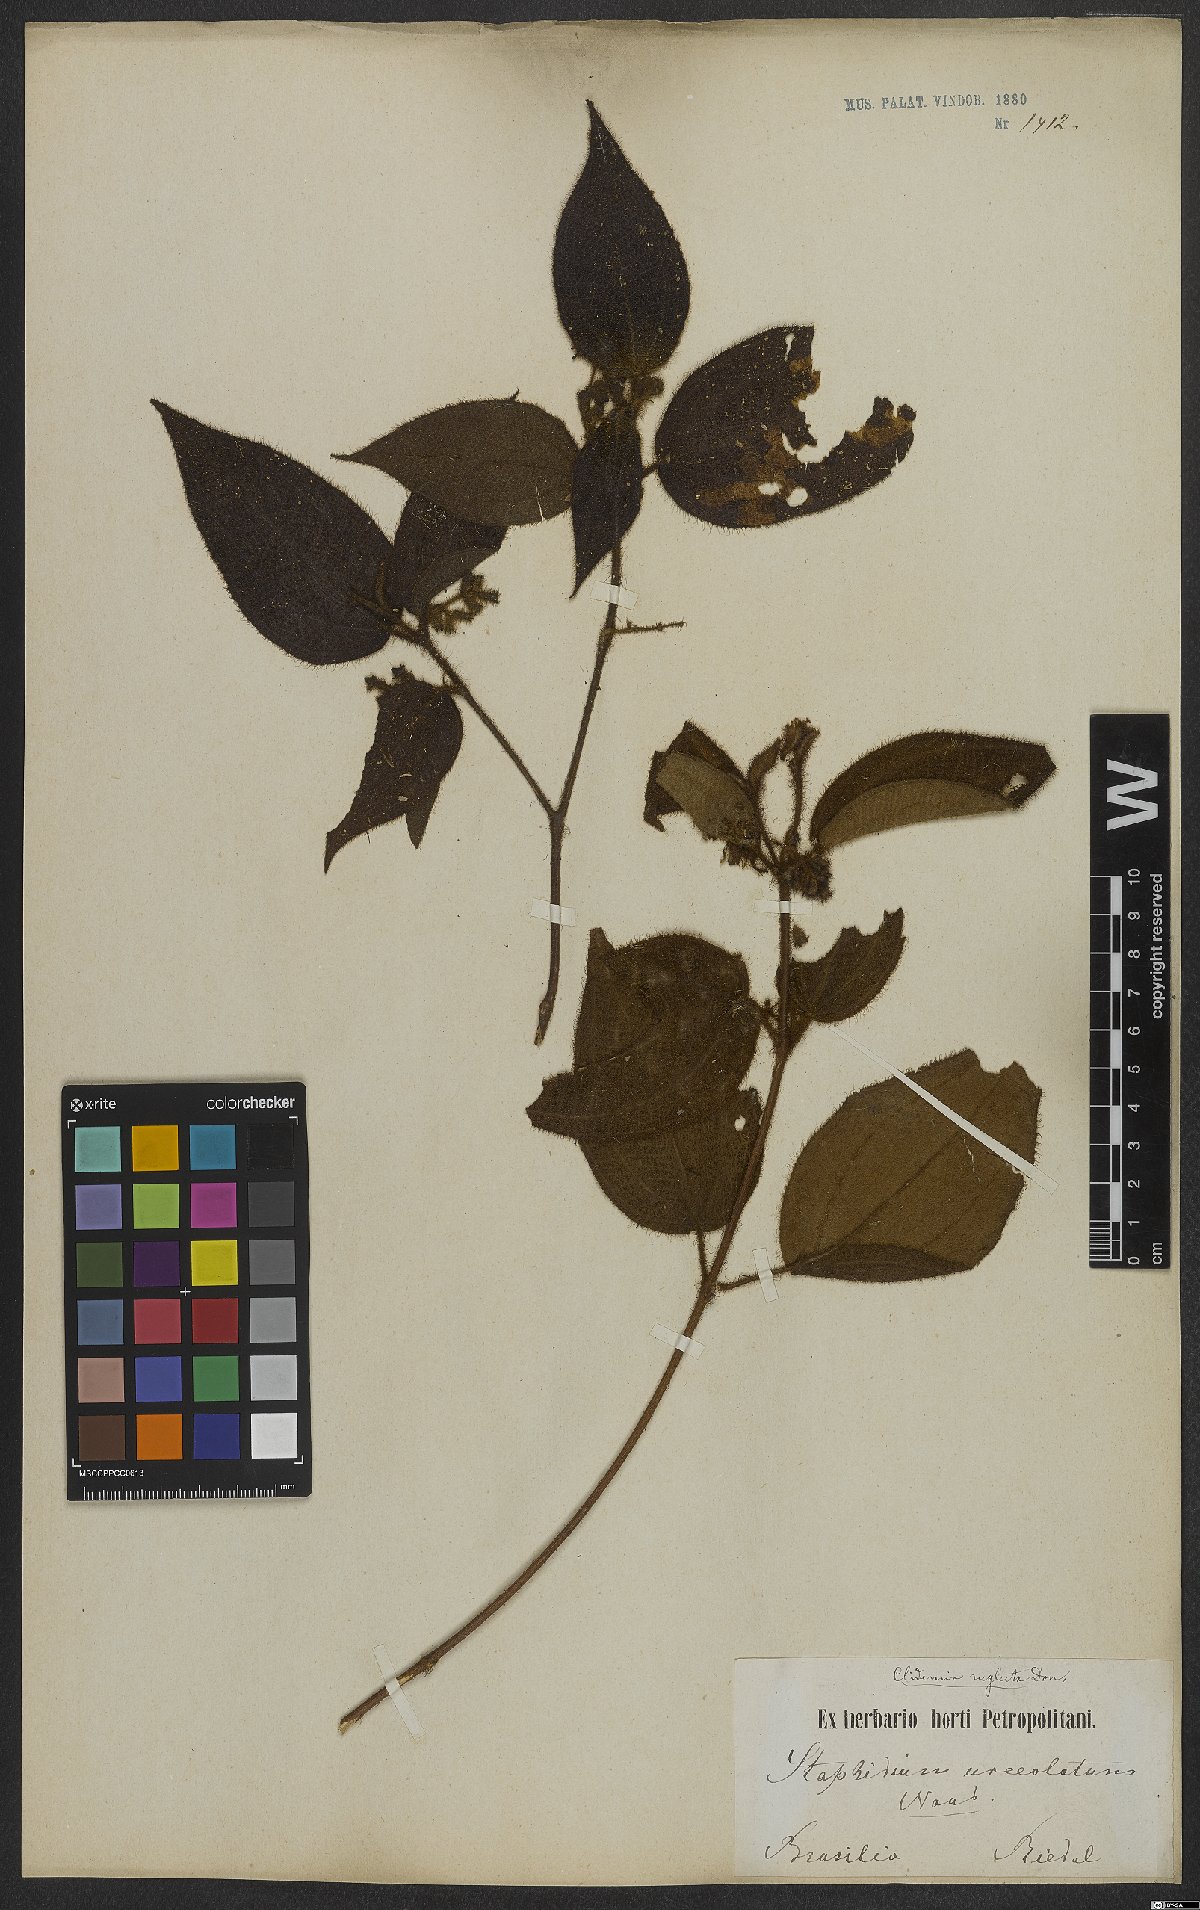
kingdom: Plantae
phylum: Tracheophyta
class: Magnoliopsida
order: Myrtales
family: Melastomataceae
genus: Miconia
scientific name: Miconia dependens
